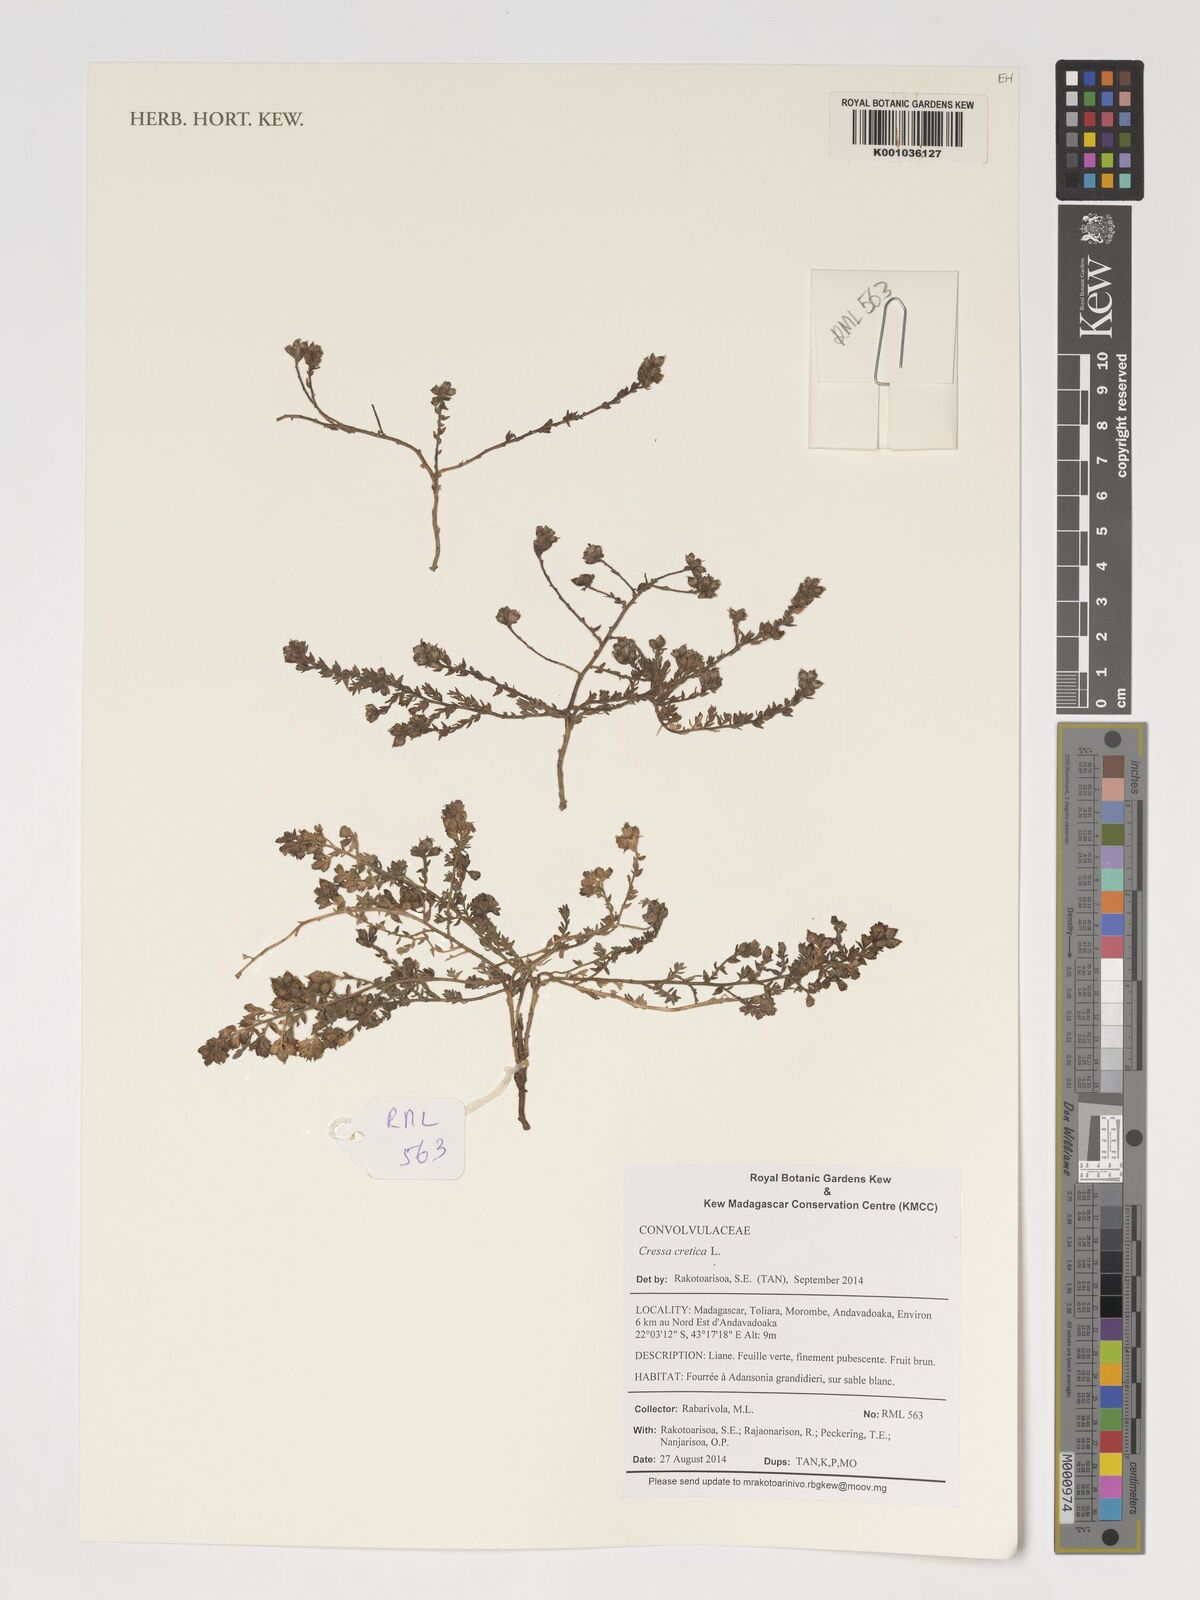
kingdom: Plantae
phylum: Tracheophyta
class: Magnoliopsida
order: Solanales
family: Convolvulaceae
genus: Cressa
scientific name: Cressa cretica
